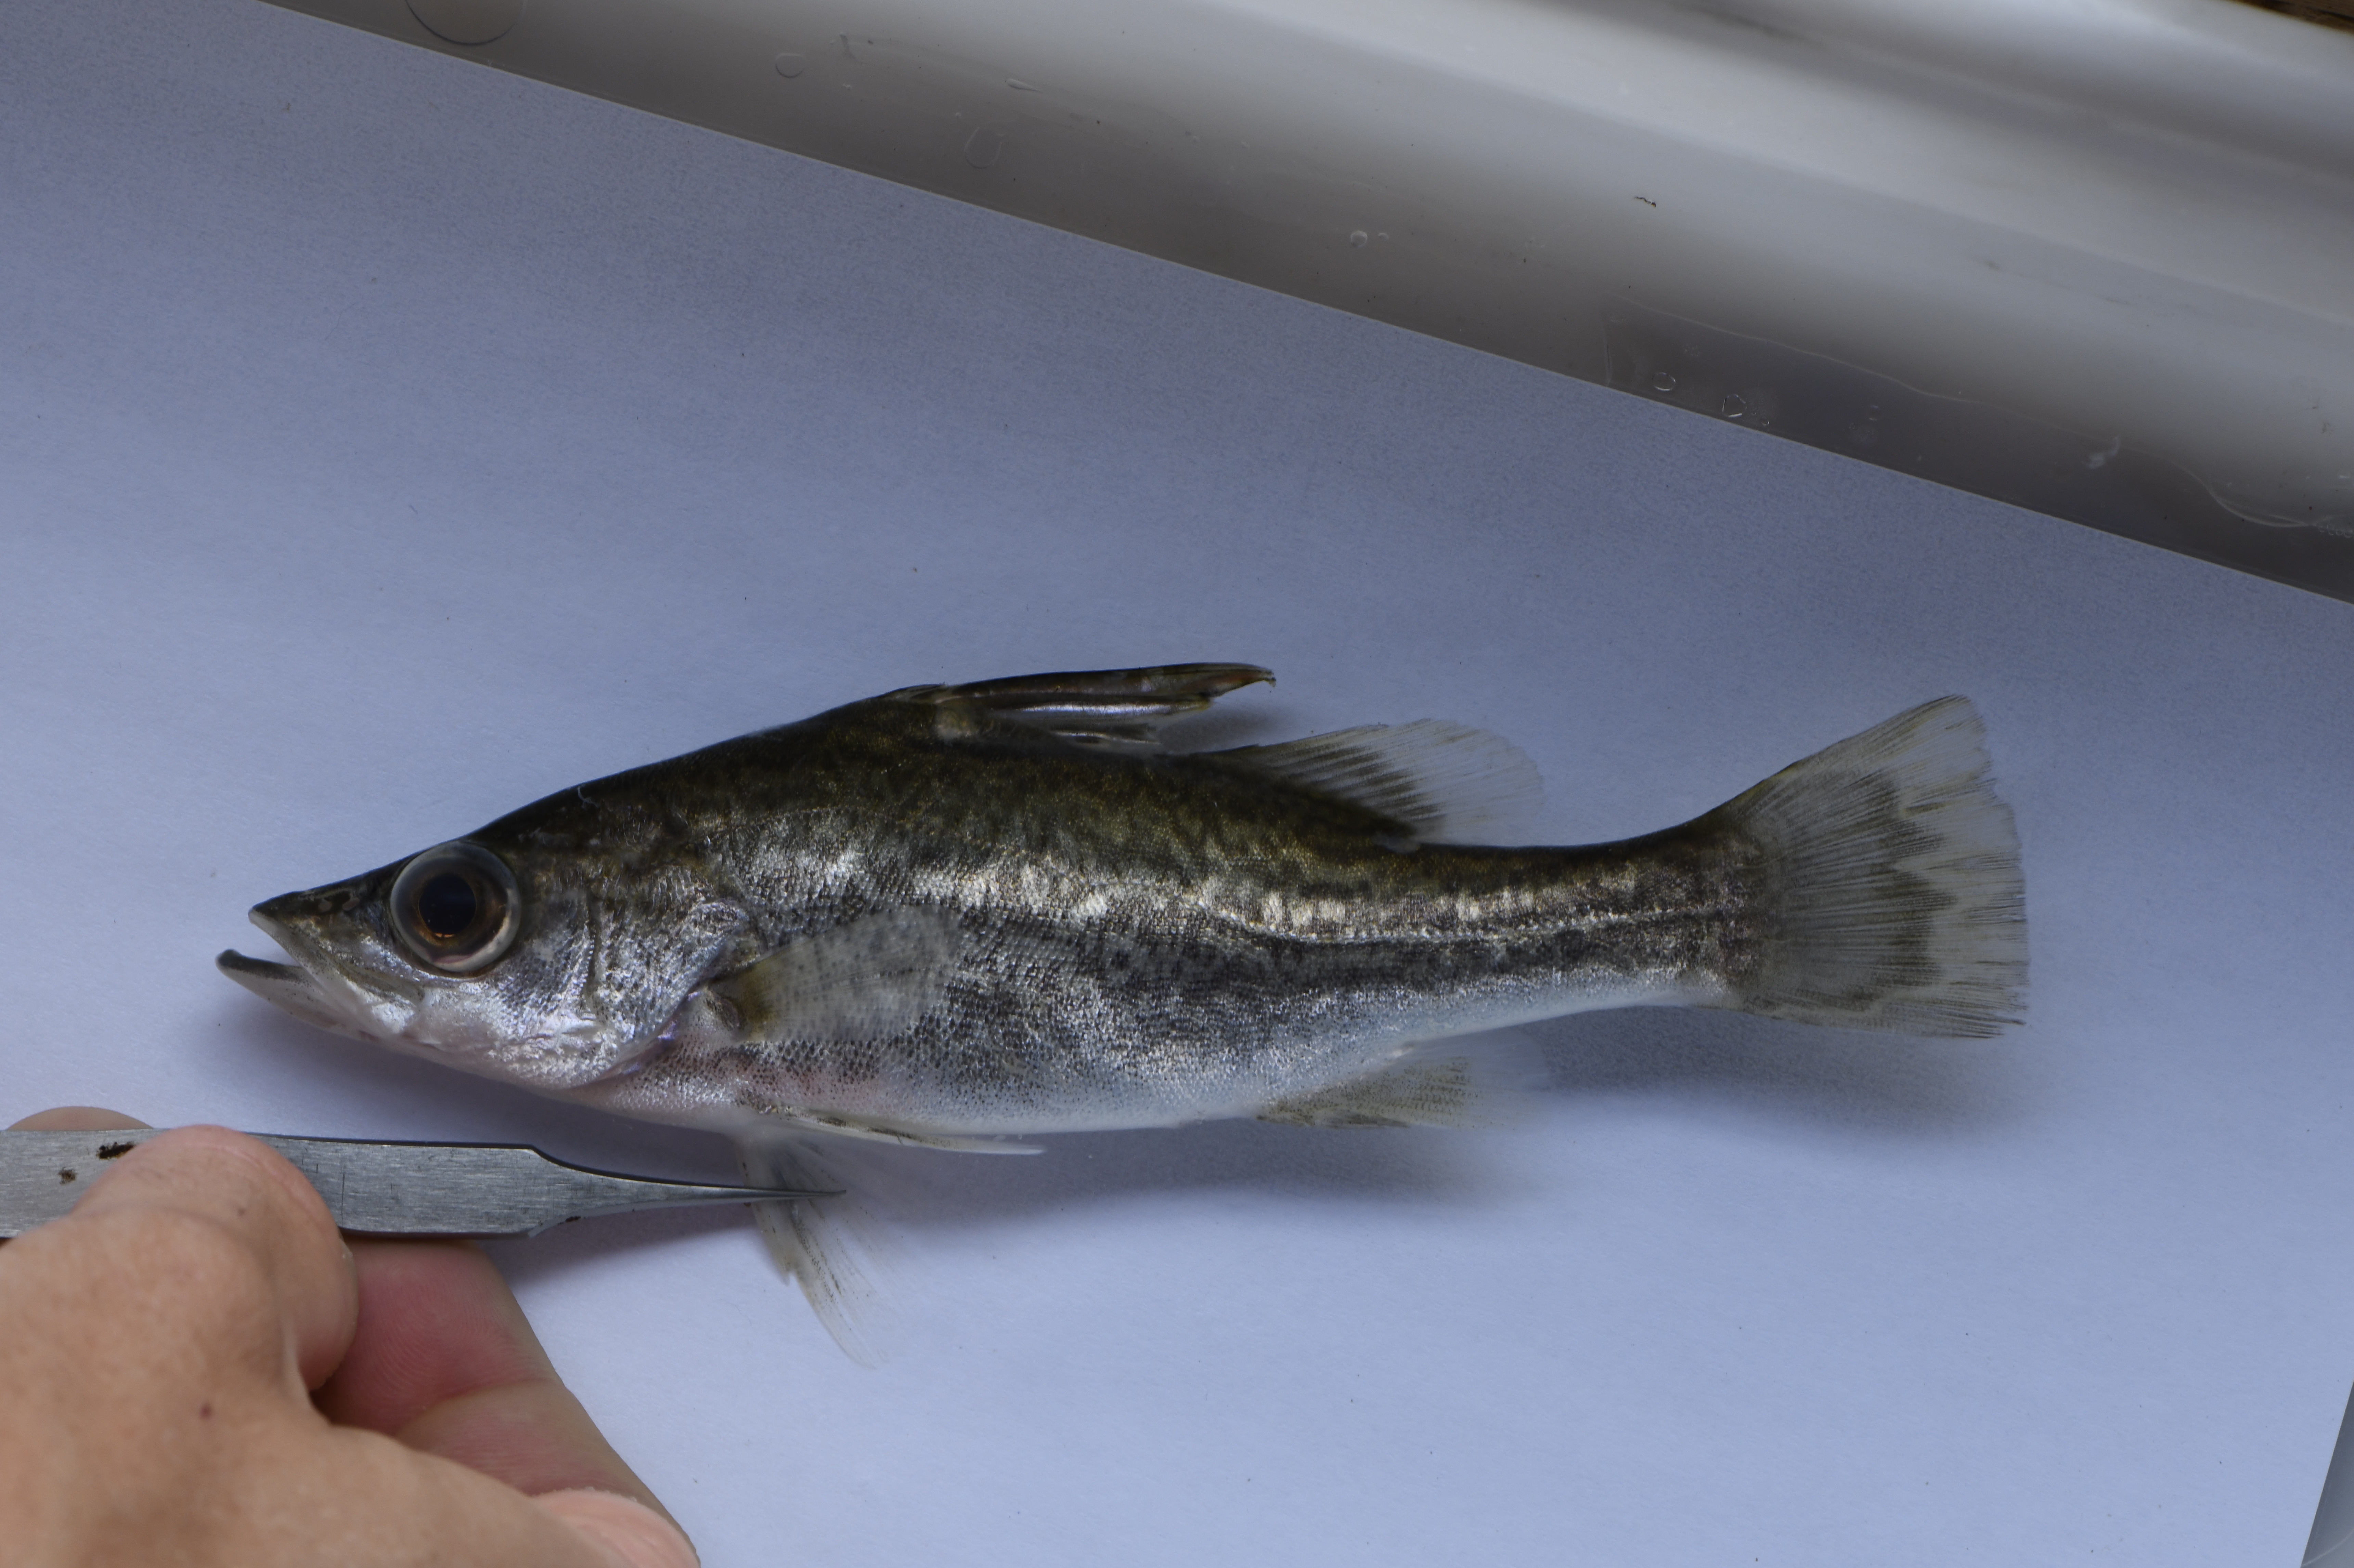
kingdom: Animalia
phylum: Chordata
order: Perciformes
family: Latidae
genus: Lates
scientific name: Lates
